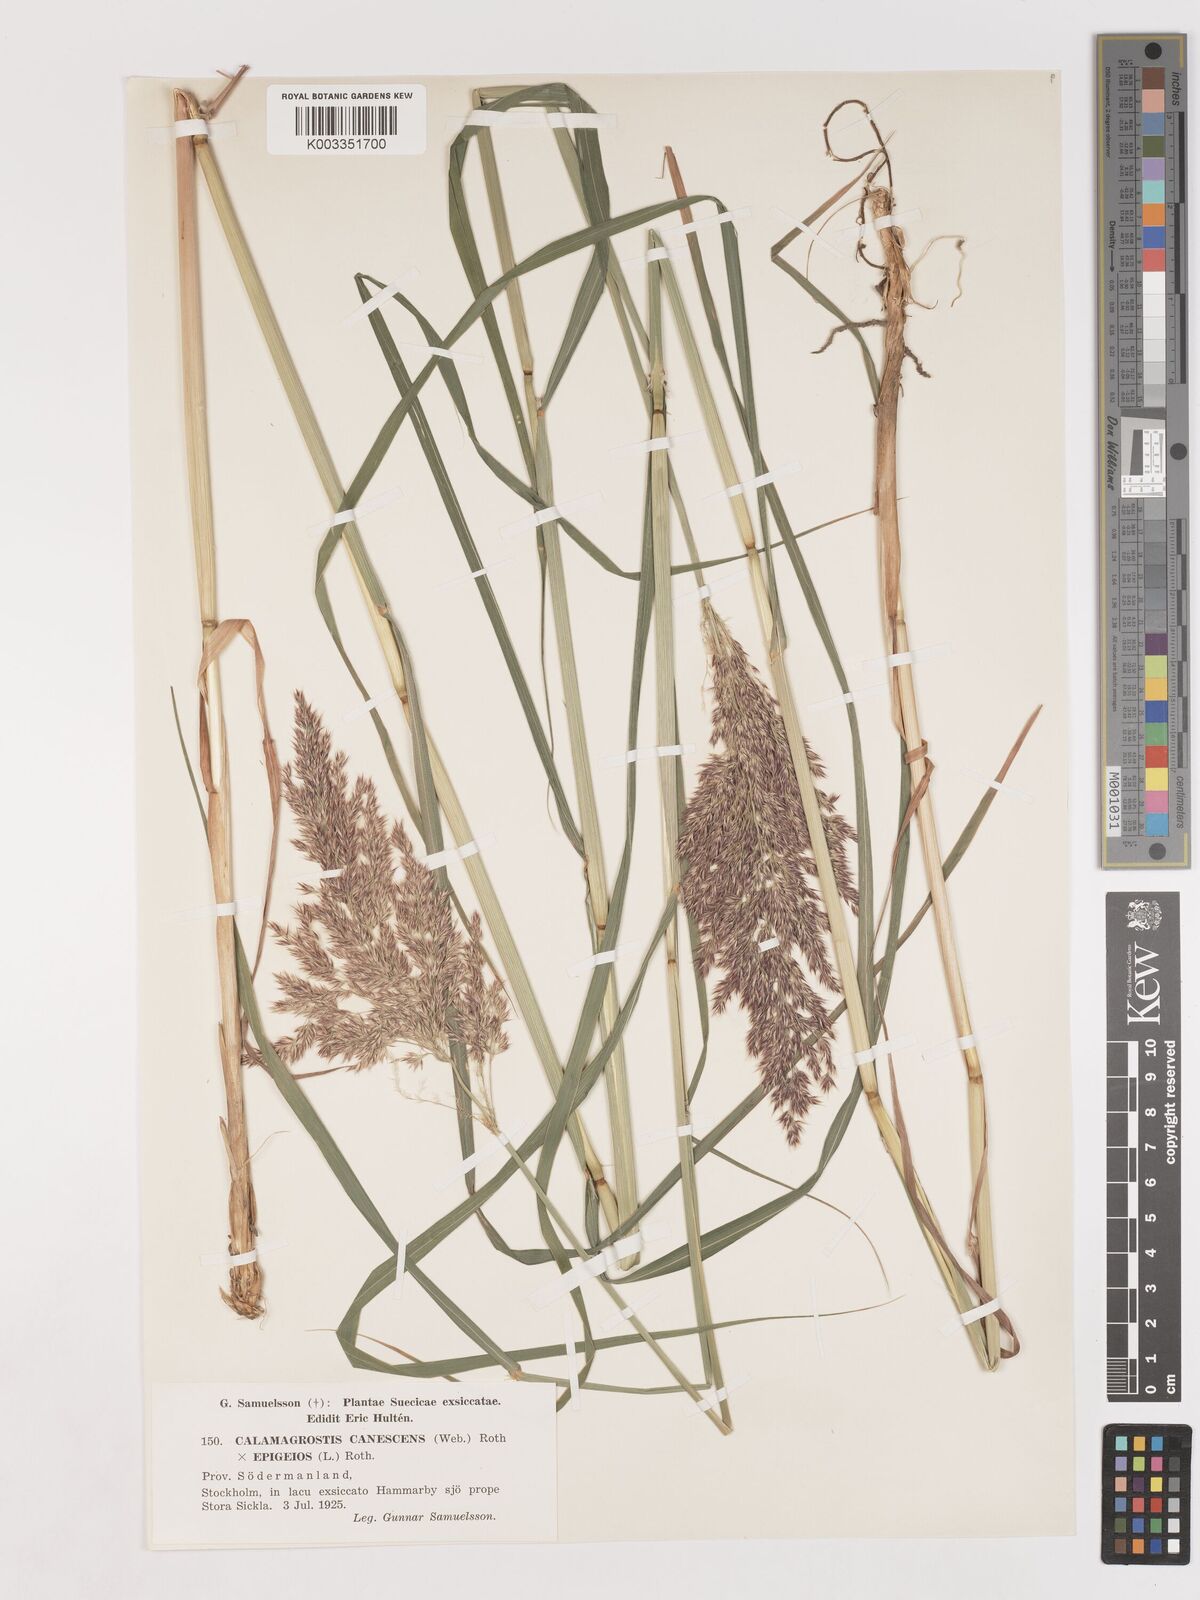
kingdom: Plantae
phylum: Tracheophyta
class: Liliopsida
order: Poales
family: Poaceae
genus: Calamagrostis
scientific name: Calamagrostis canescens
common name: Purple small-reed
